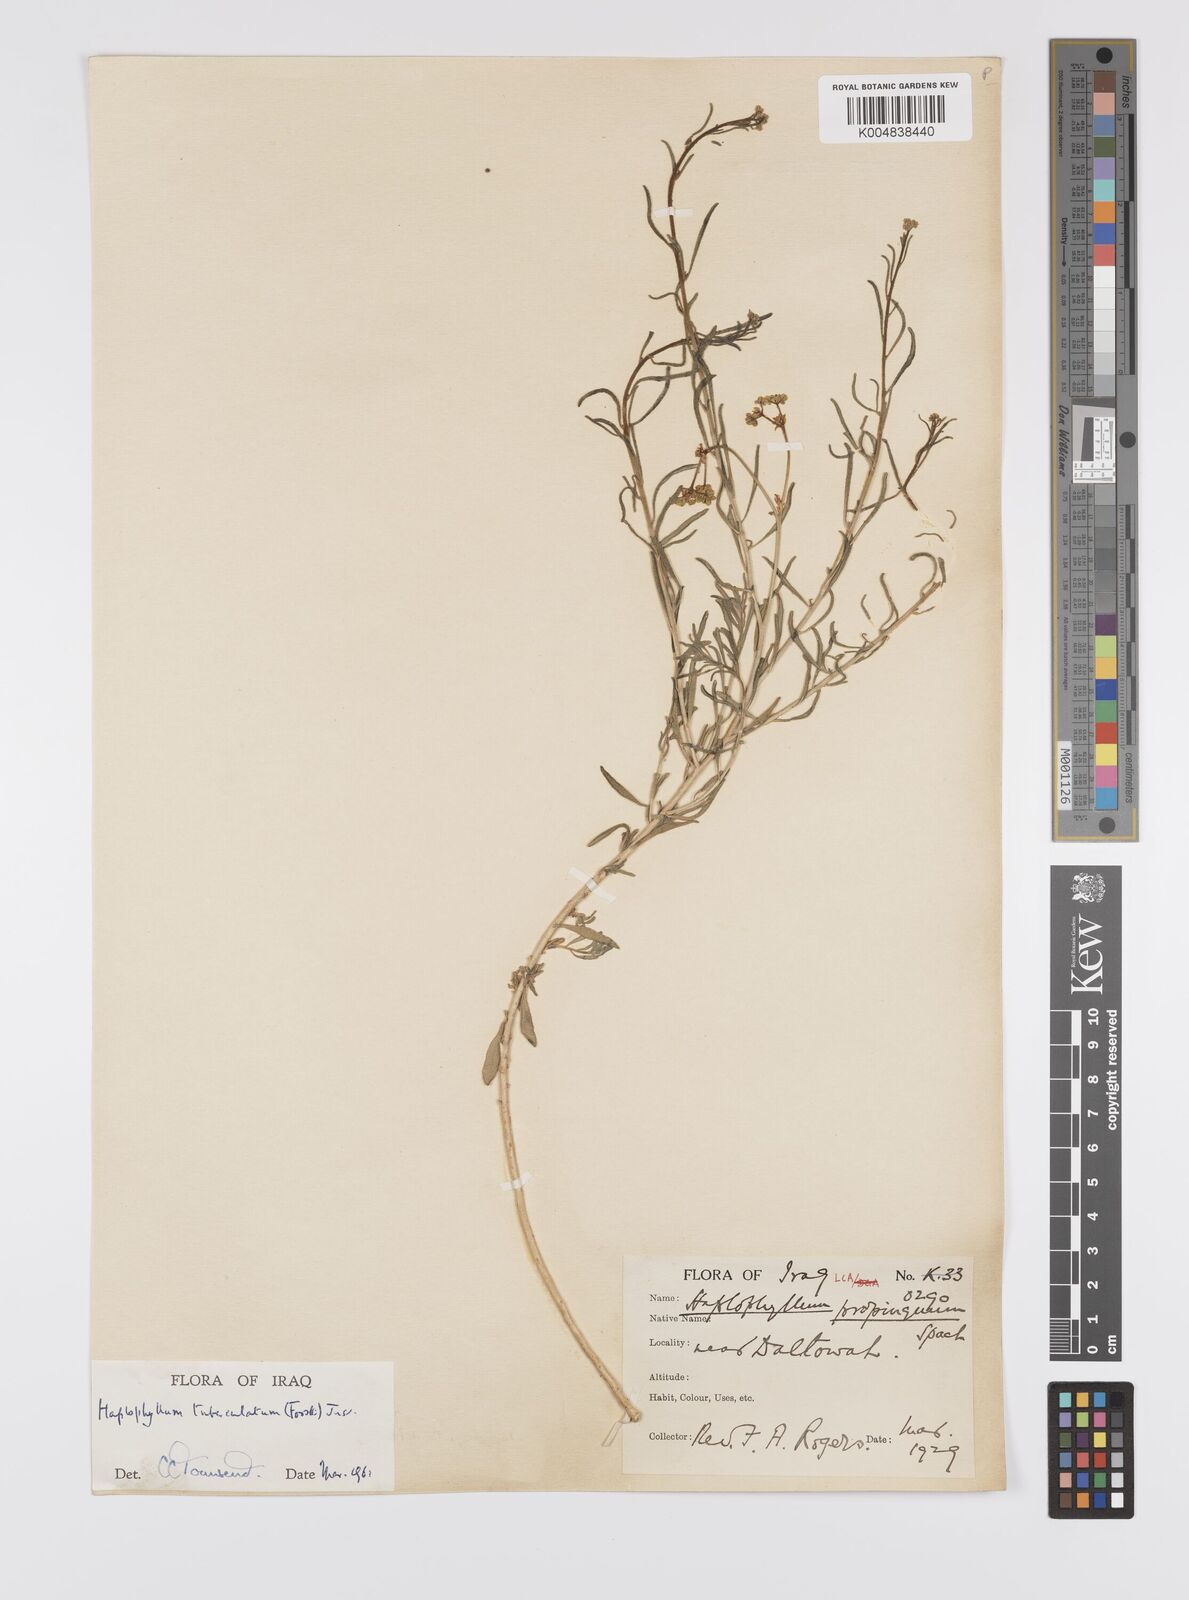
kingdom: Plantae
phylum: Tracheophyta
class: Magnoliopsida
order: Sapindales
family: Rutaceae
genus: Haplophyllum
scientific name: Haplophyllum tuberculatum
